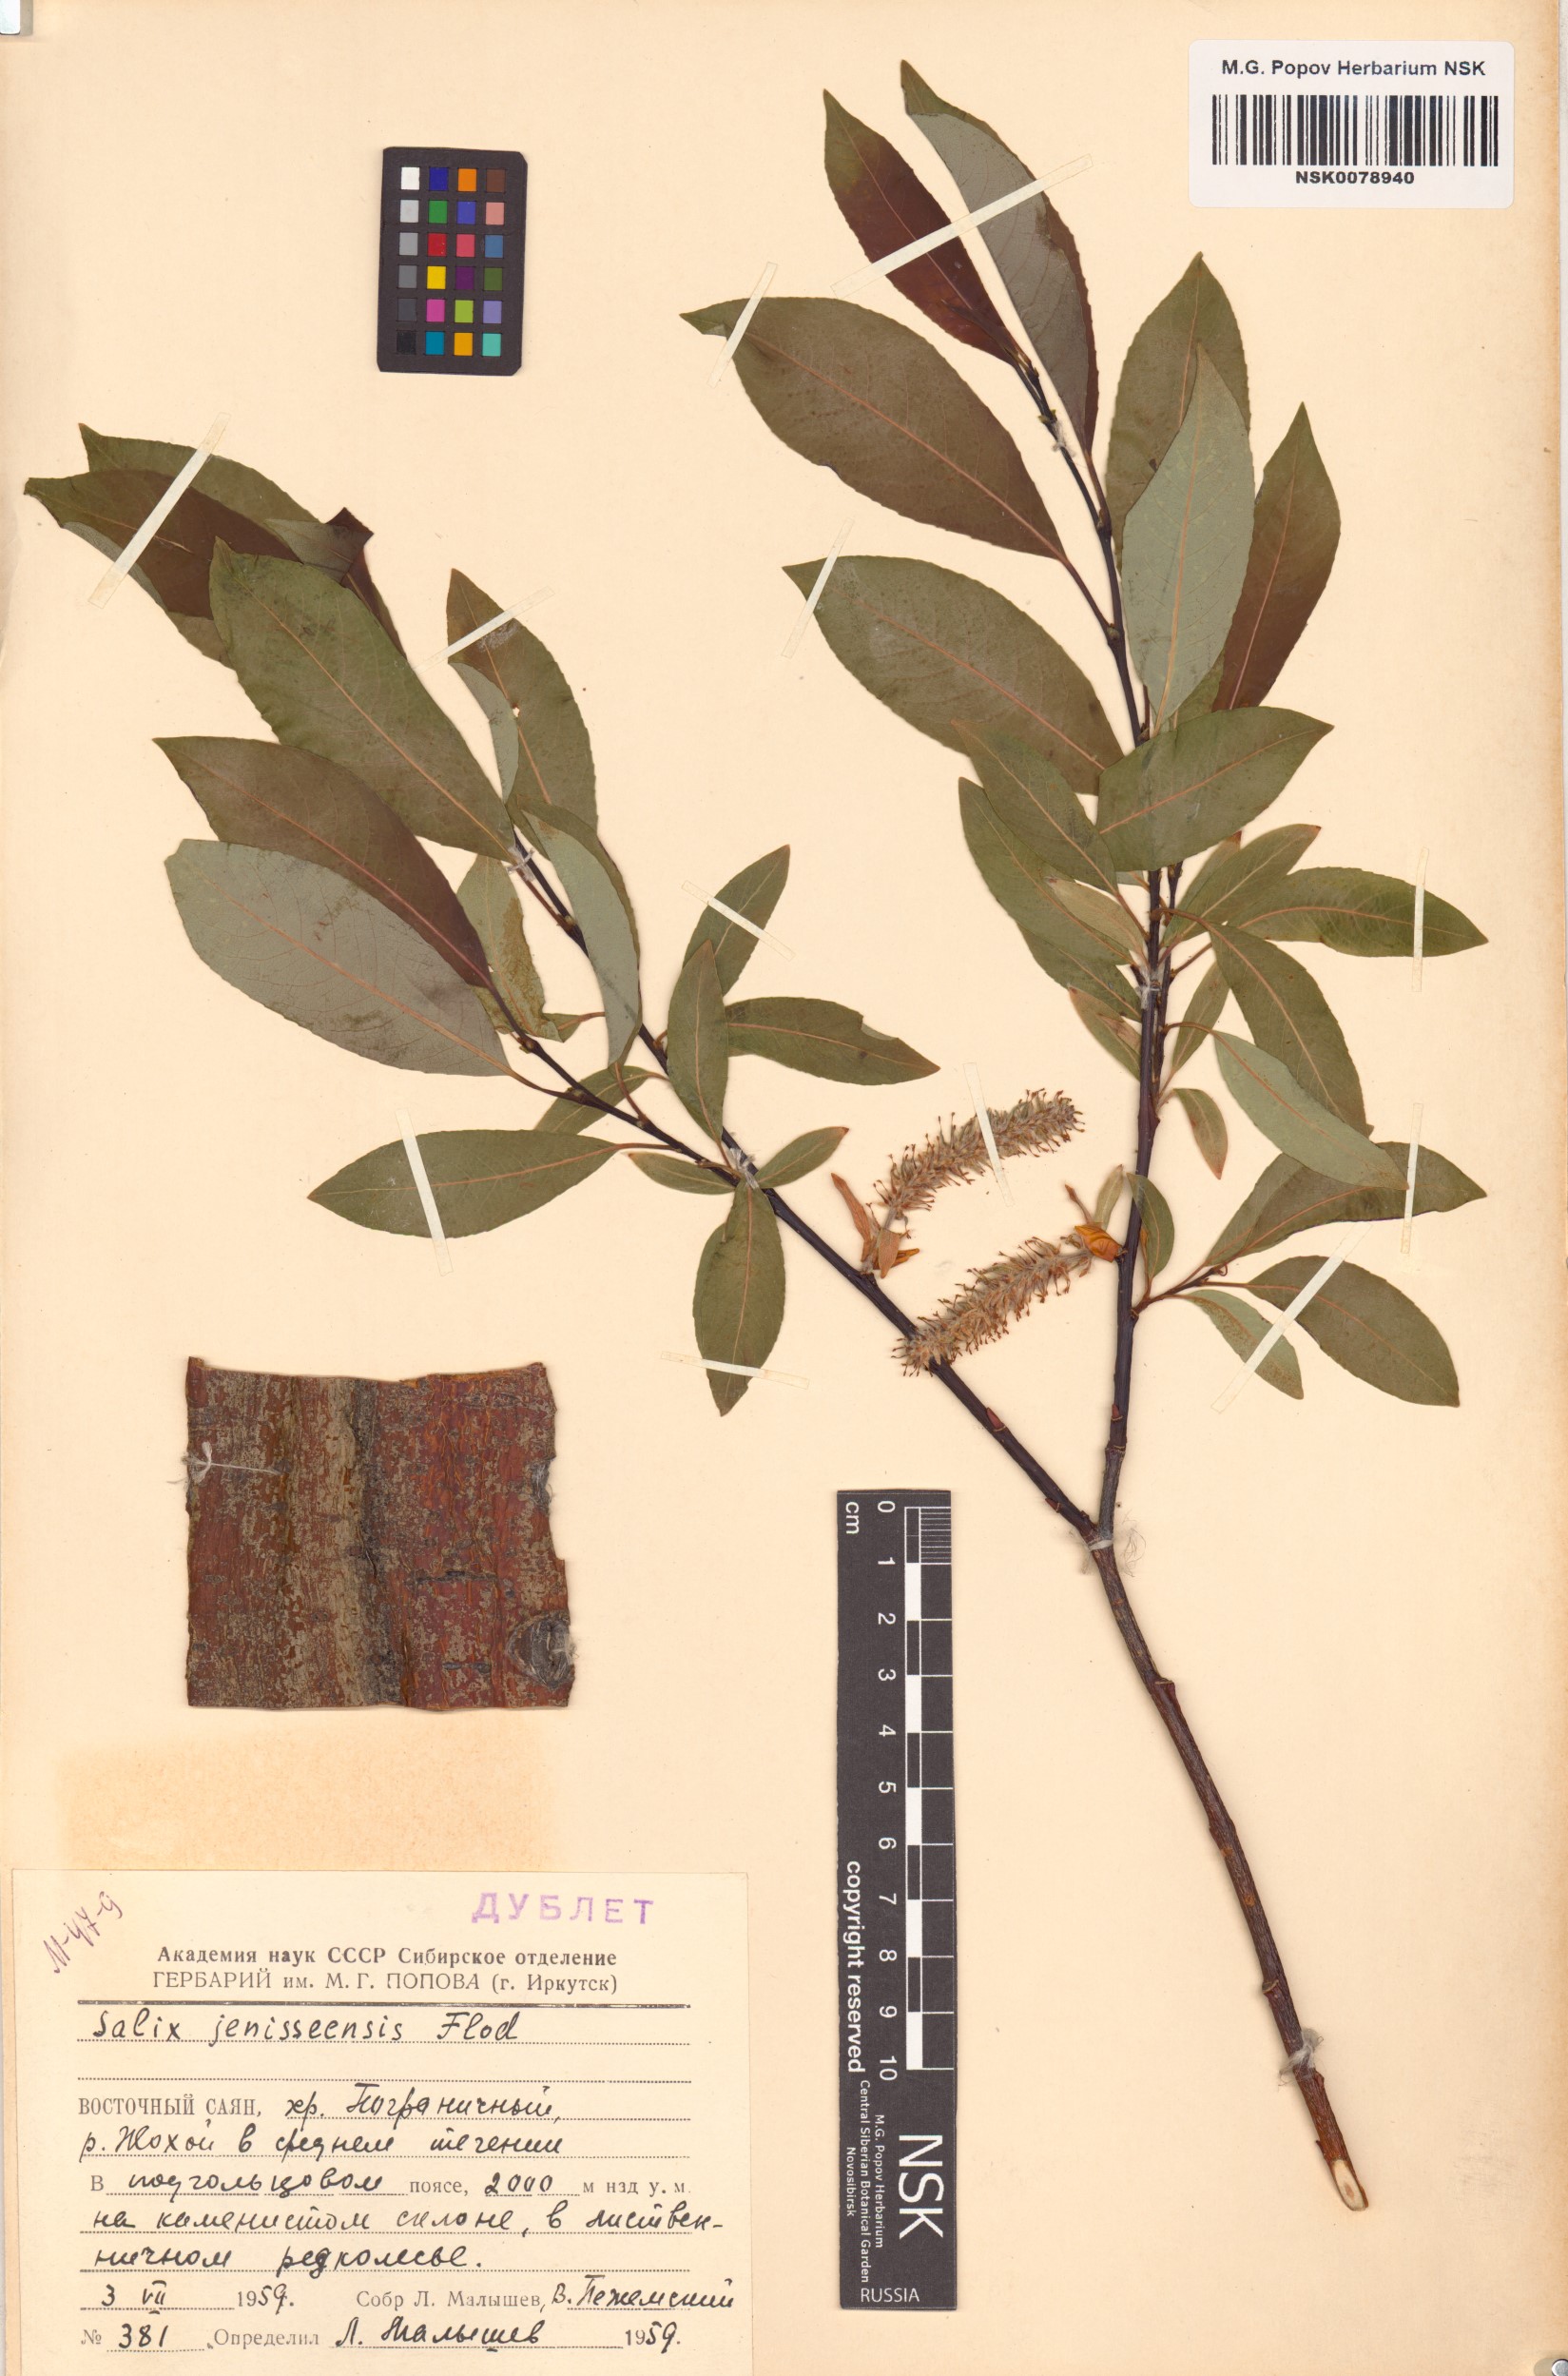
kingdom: Plantae
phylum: Tracheophyta
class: Magnoliopsida
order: Malpighiales
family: Salicaceae
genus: Salix
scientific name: Salix jenisseensis
